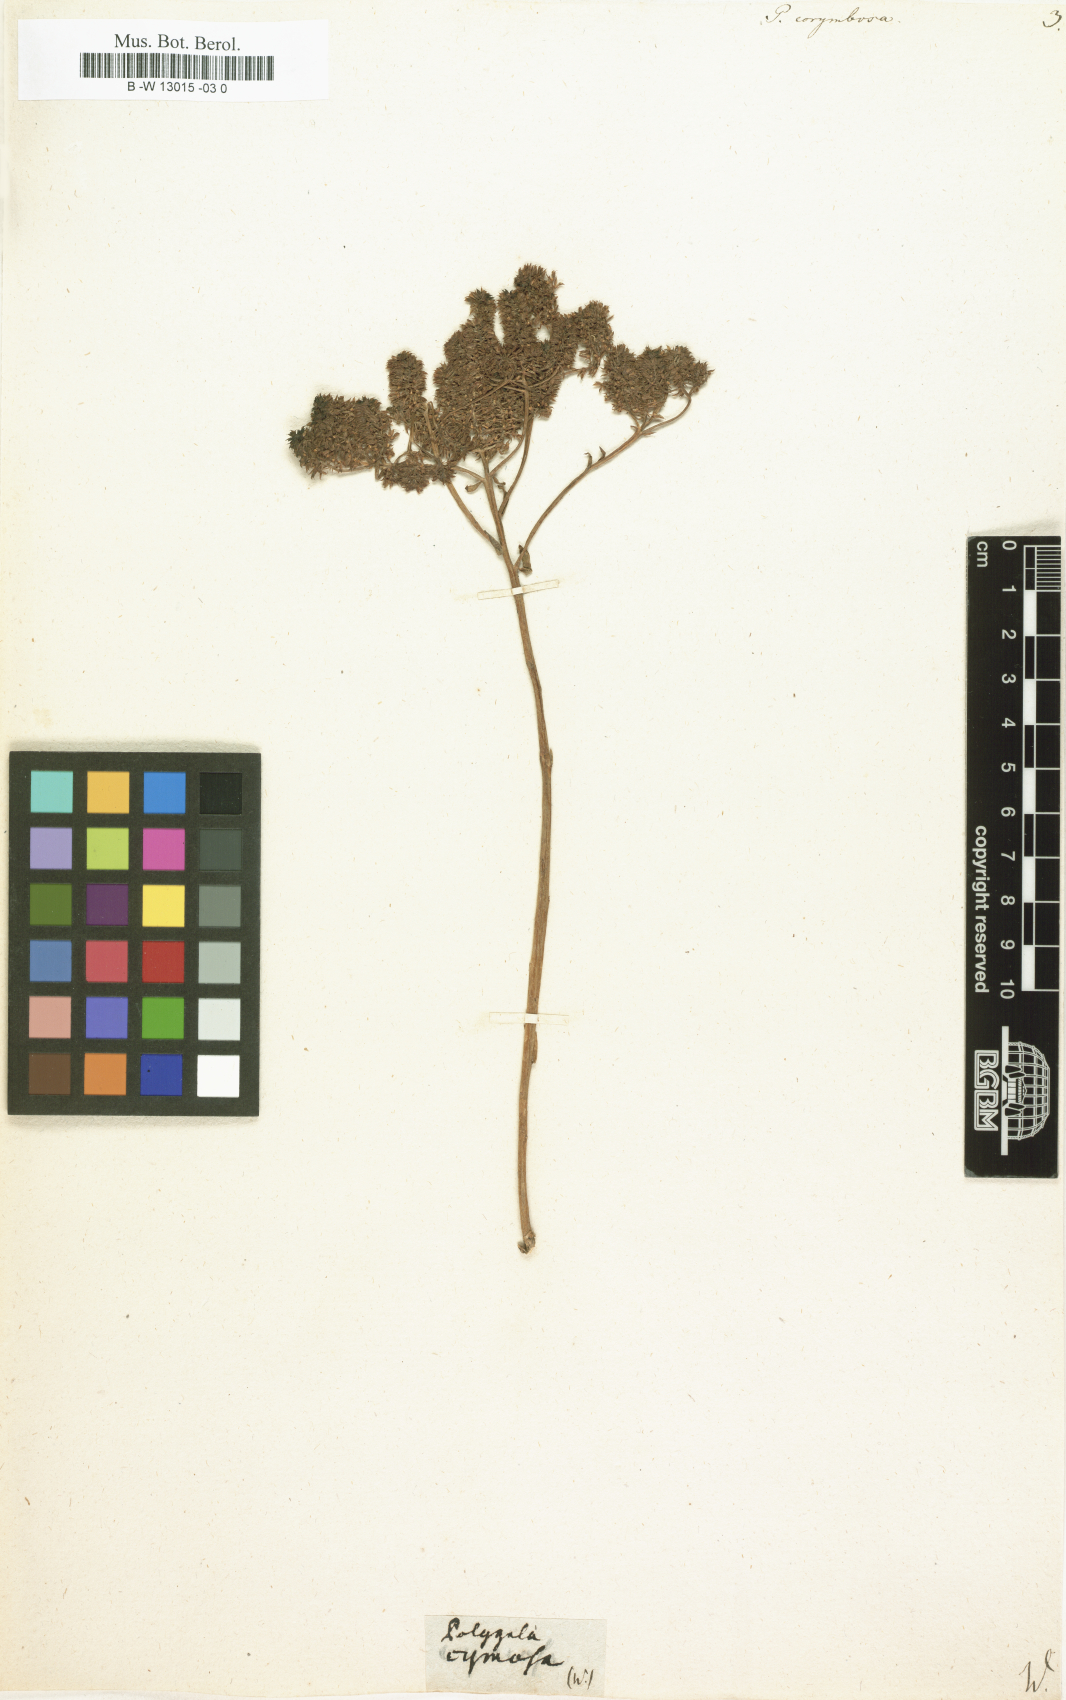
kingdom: Plantae
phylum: Tracheophyta
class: Magnoliopsida
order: Fabales
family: Polygalaceae
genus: Polygala
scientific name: Polygala
